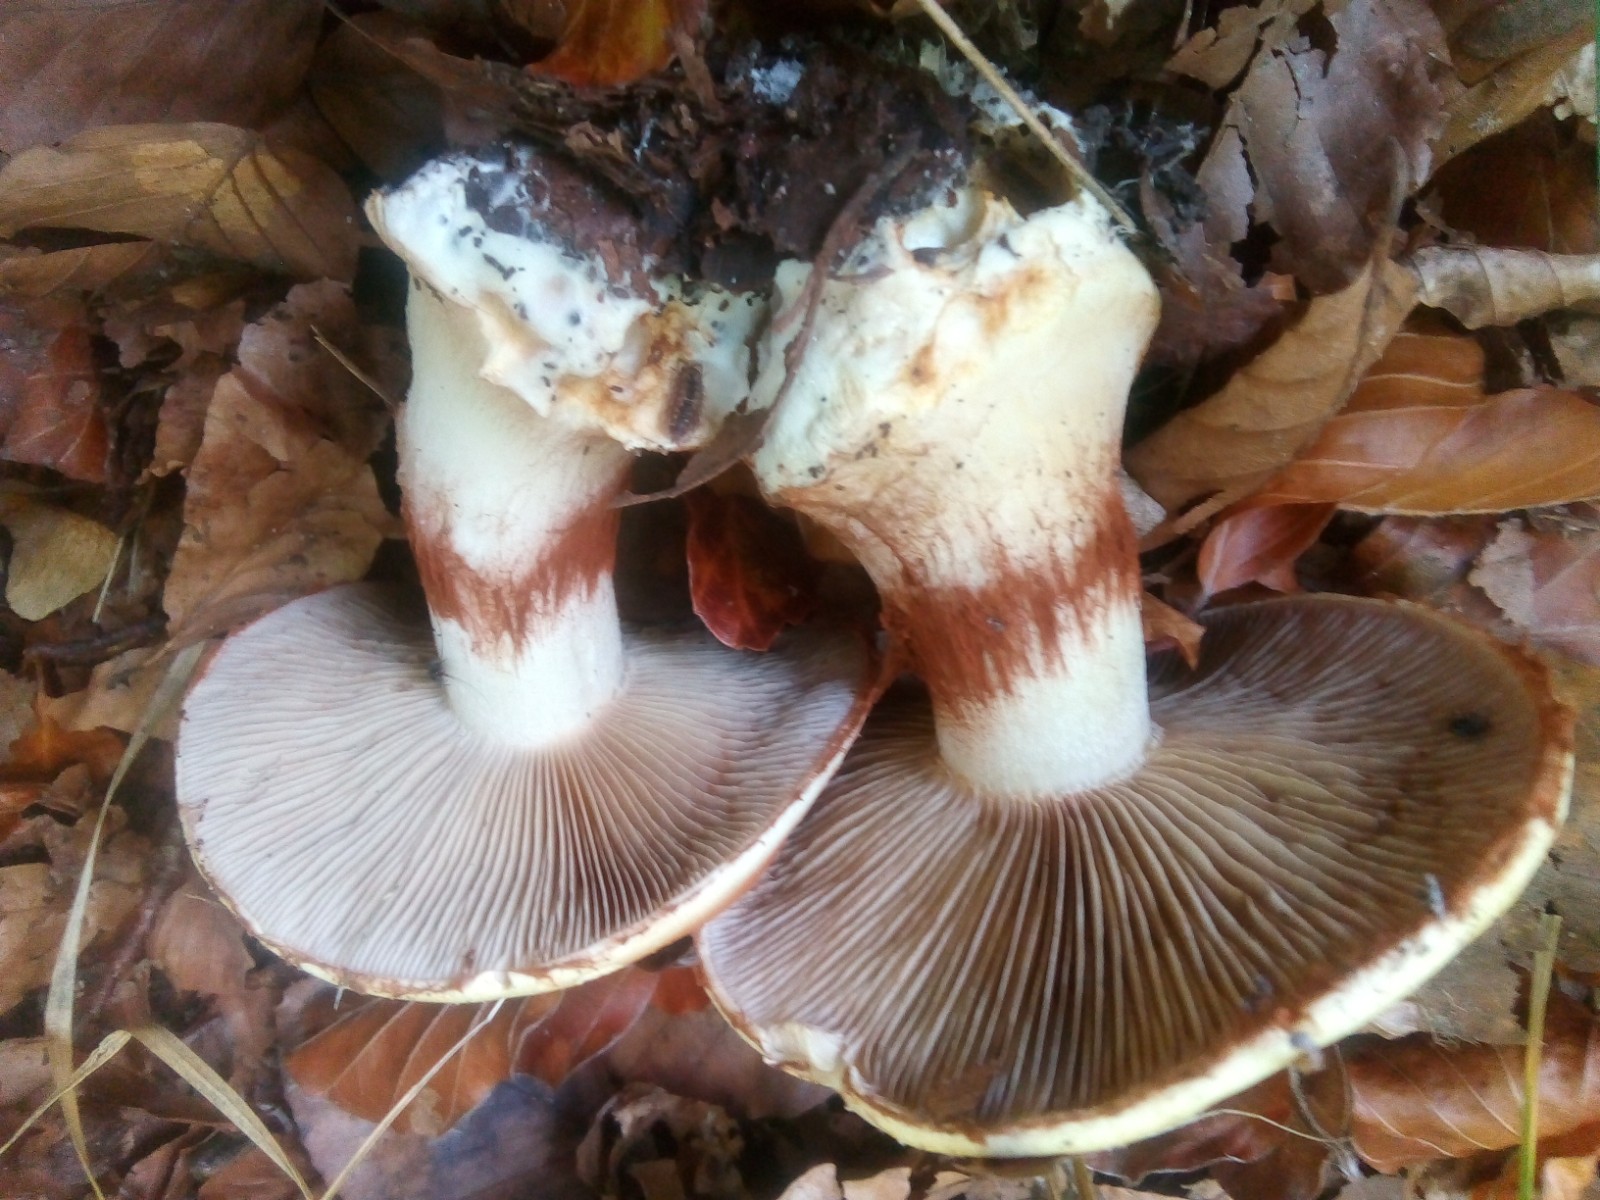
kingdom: Fungi
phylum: Basidiomycota
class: Agaricomycetes
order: Agaricales
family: Cortinariaceae
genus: Phlegmacium
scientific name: Phlegmacium caesiocortinatum
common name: rundsporet slørhat
